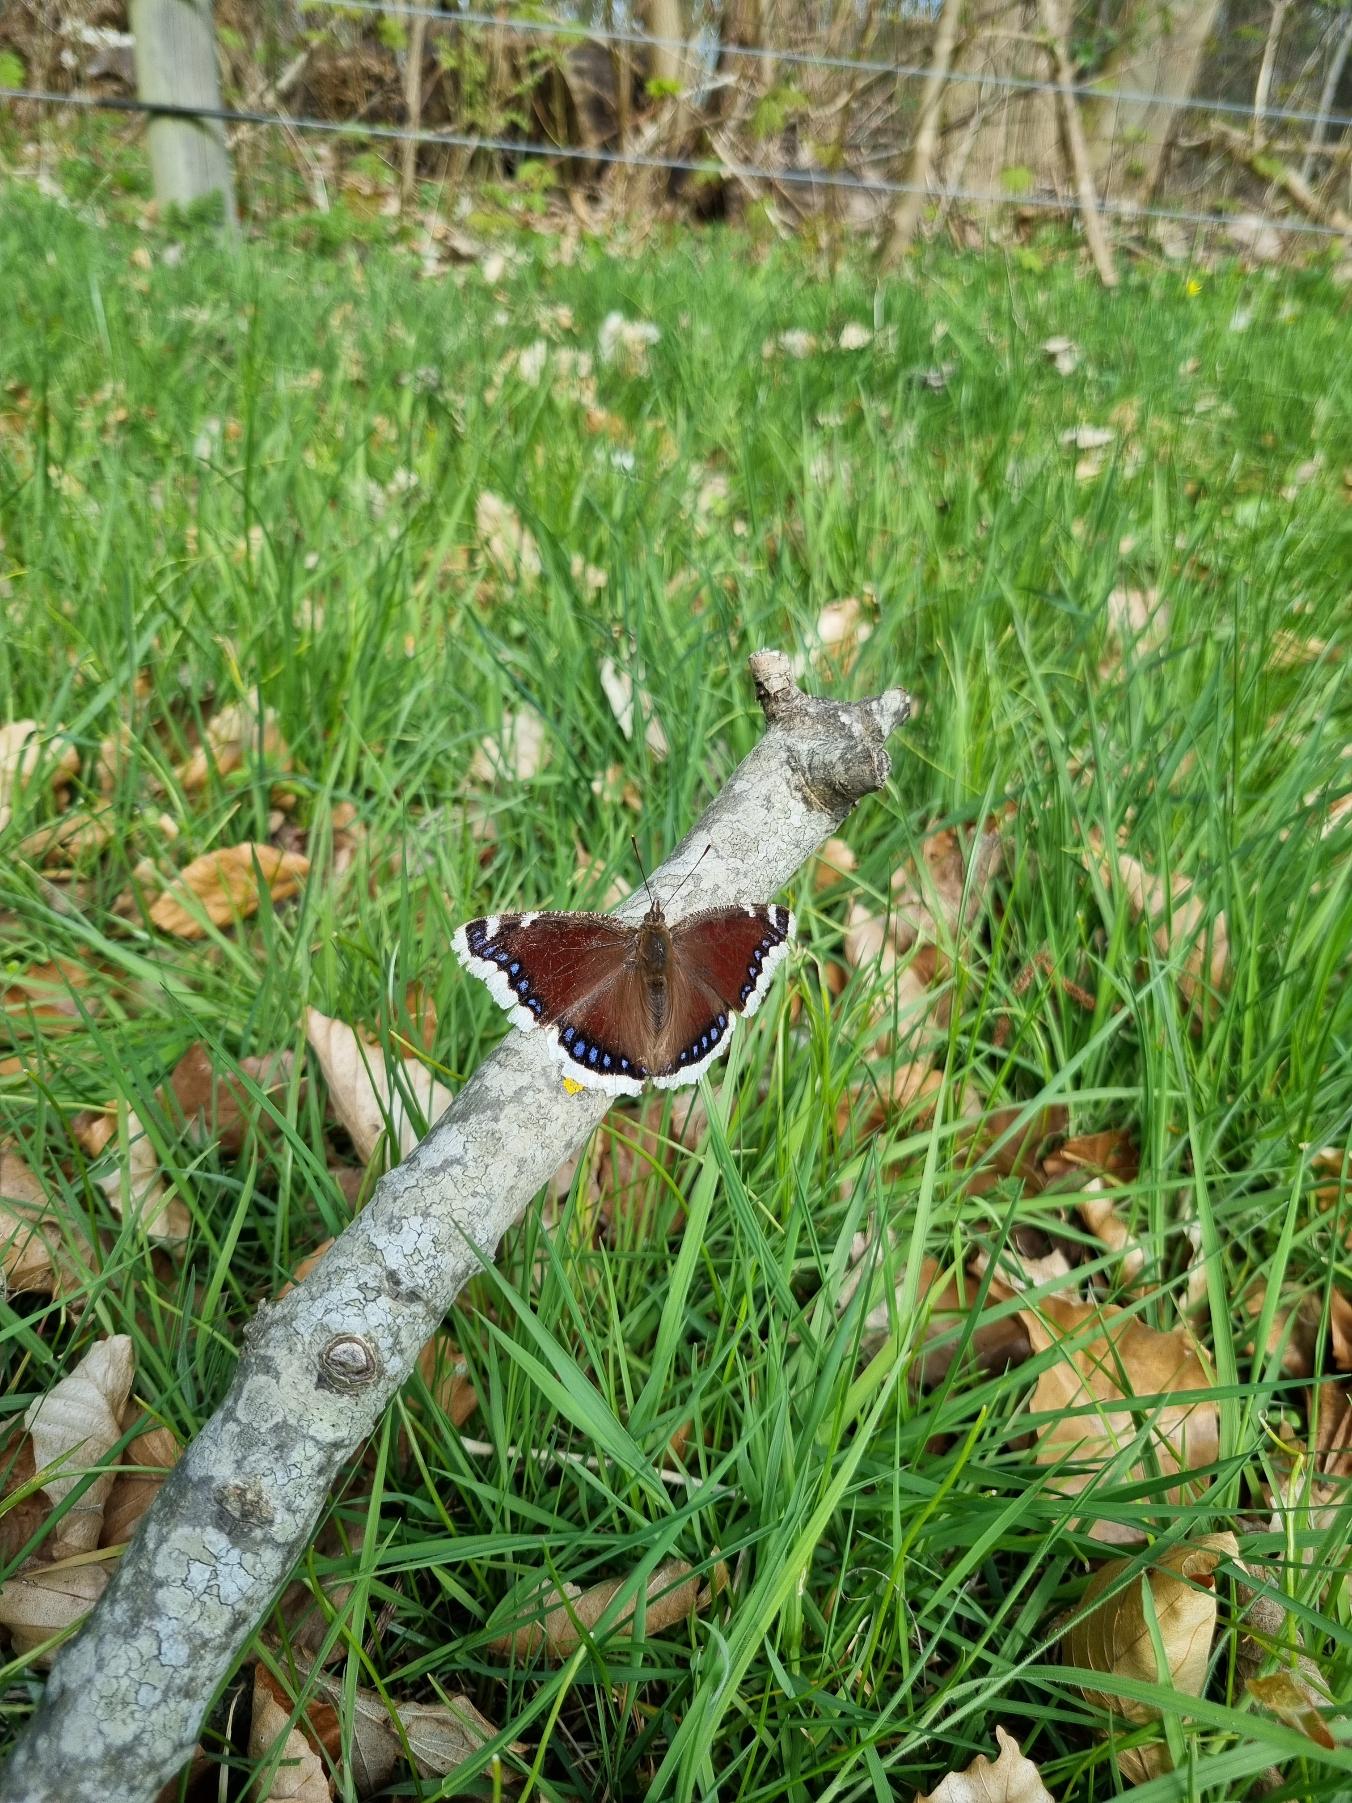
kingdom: Animalia
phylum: Arthropoda
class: Insecta
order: Lepidoptera
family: Nymphalidae
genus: Nymphalis
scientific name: Nymphalis antiopa
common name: Sørgekåbe
